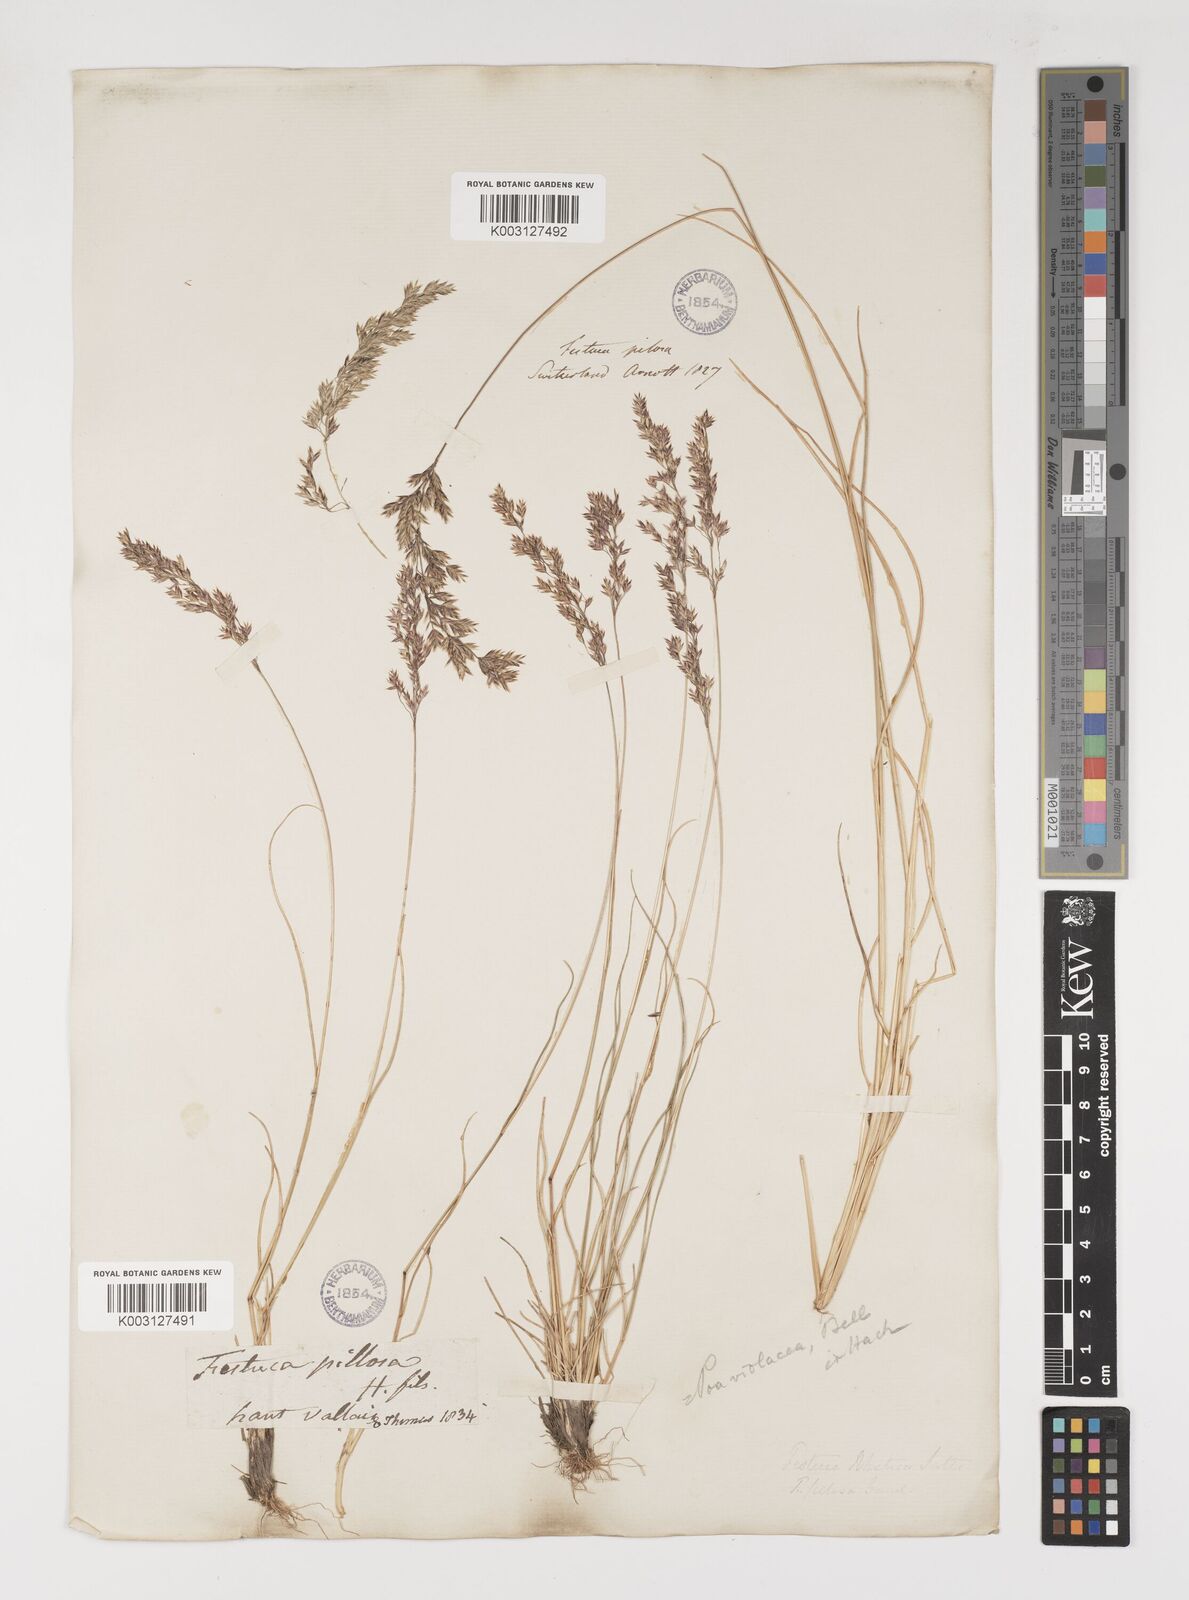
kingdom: Plantae
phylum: Tracheophyta
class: Liliopsida
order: Poales
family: Poaceae
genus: Bellardiochloa
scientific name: Bellardiochloa variegata
